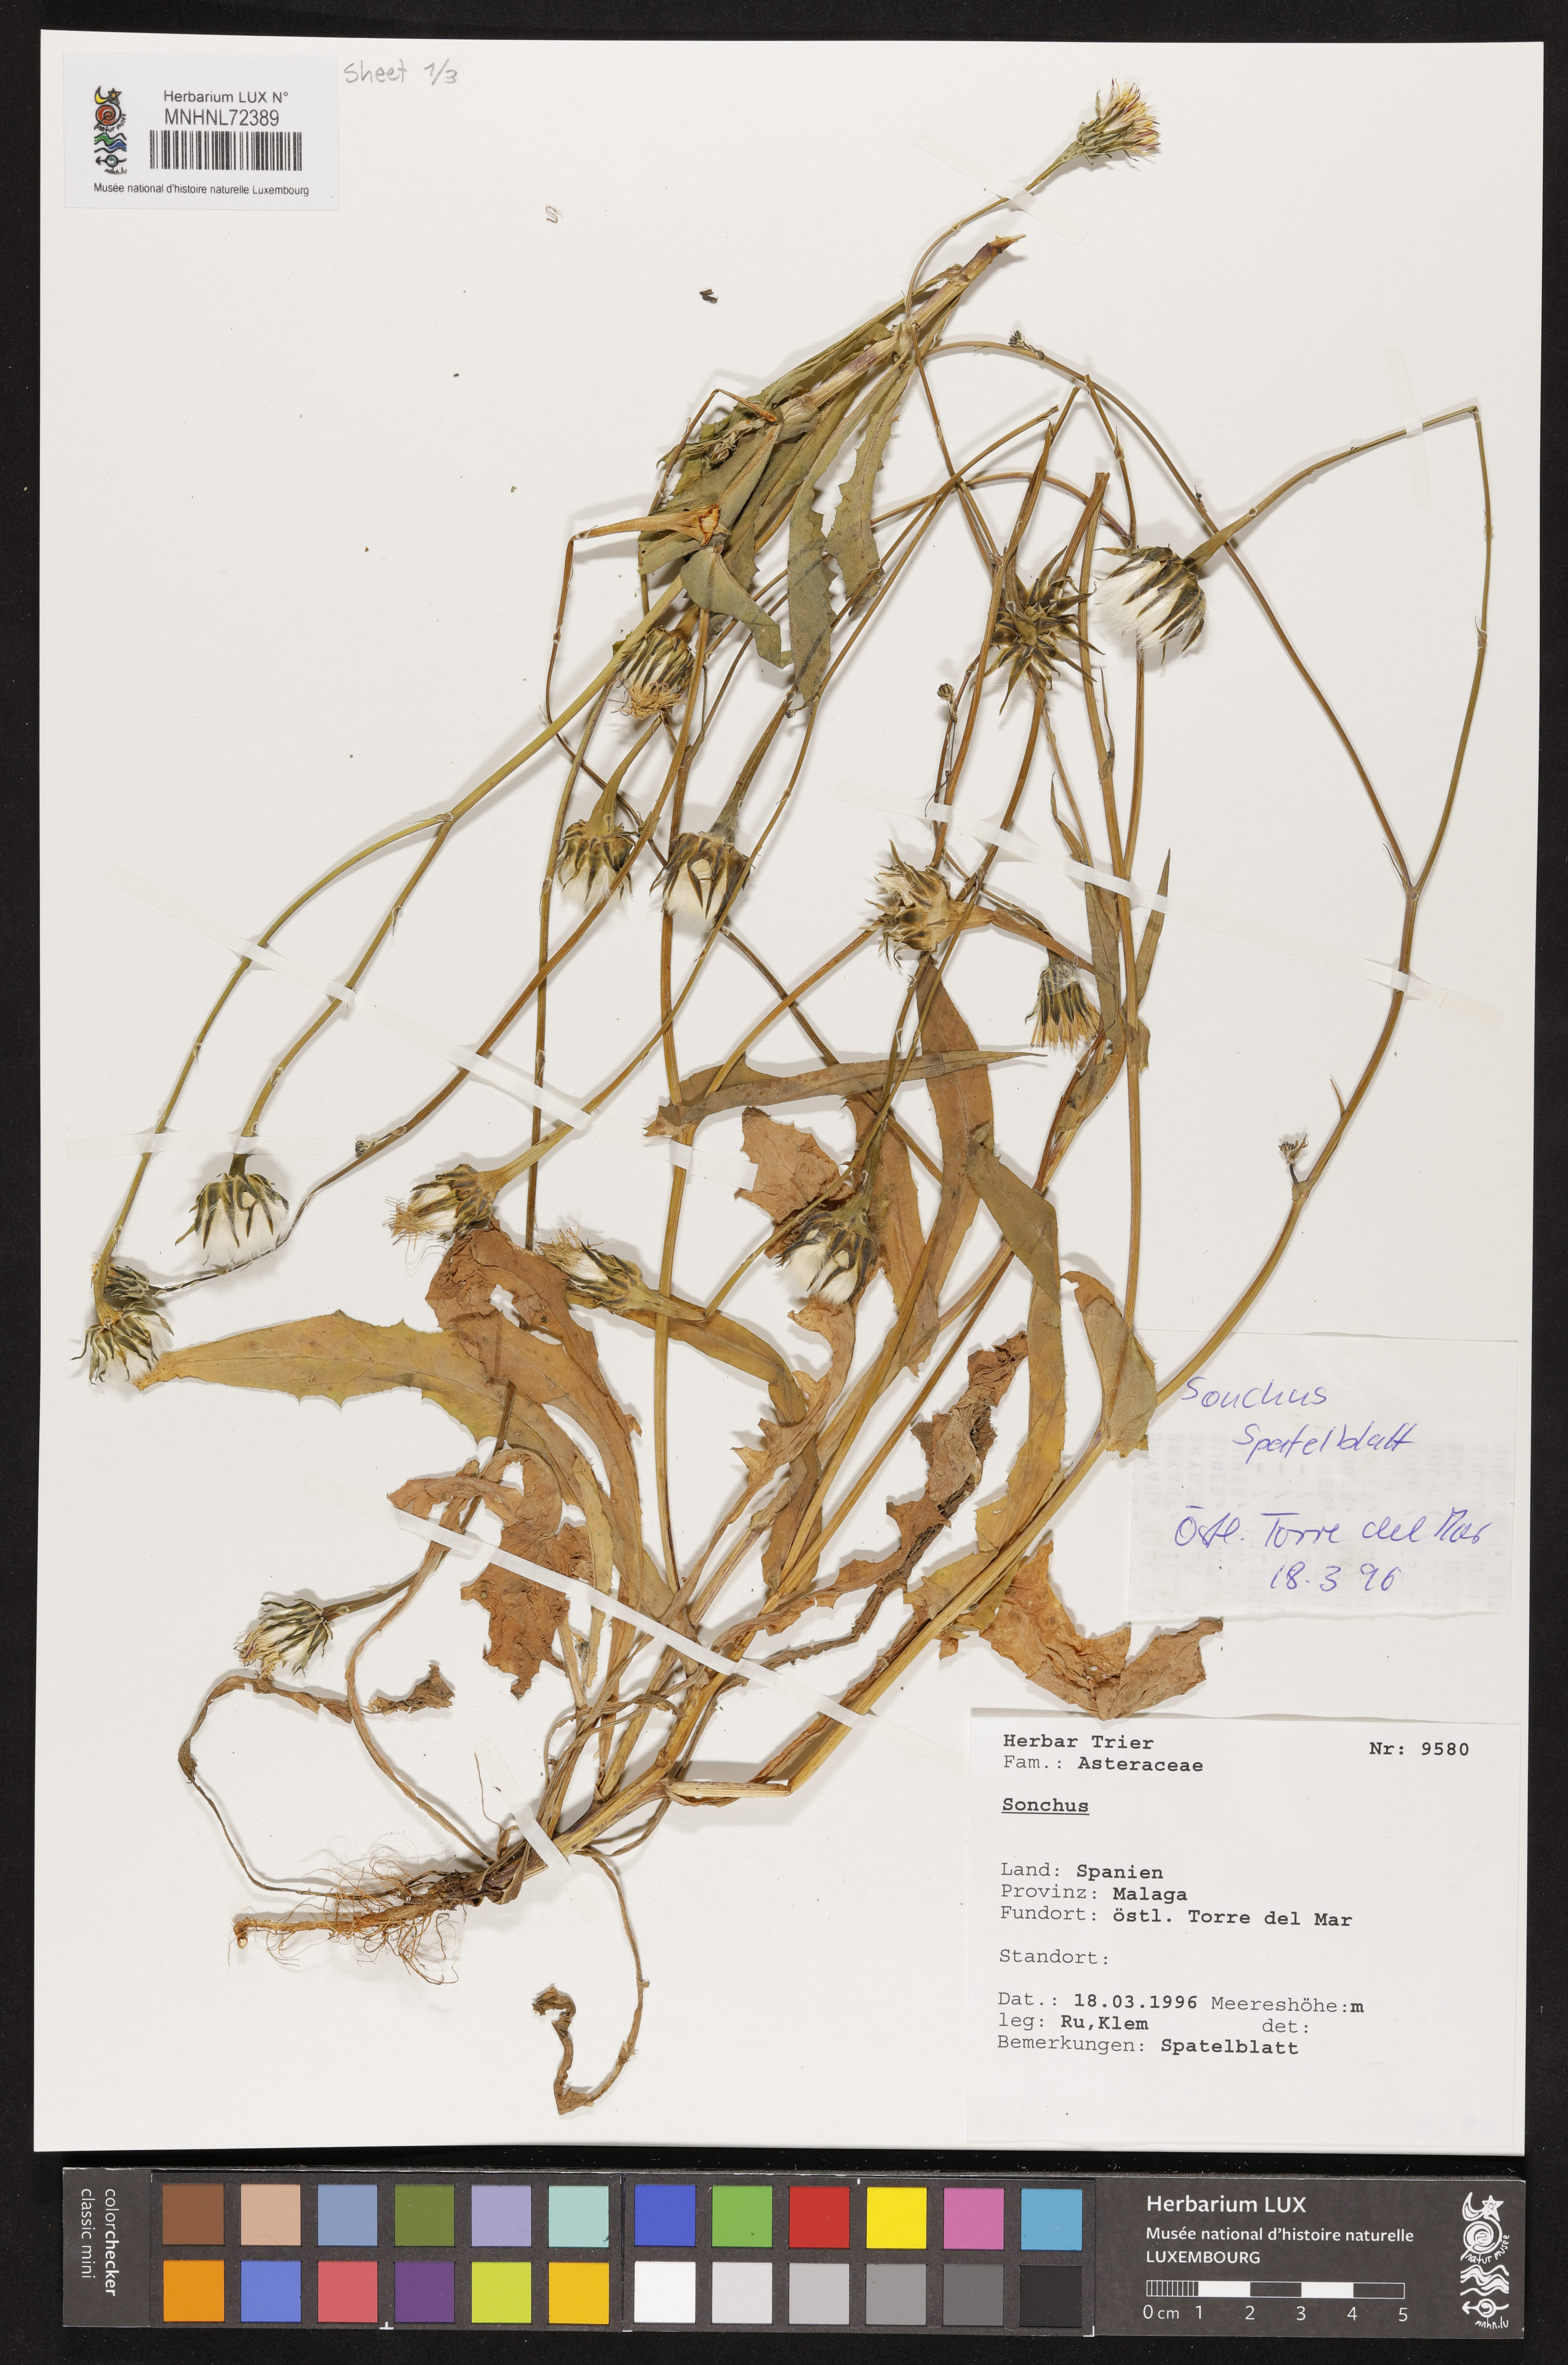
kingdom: Plantae
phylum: Tracheophyta
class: Magnoliopsida
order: Asterales
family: Asteraceae
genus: Sonchus
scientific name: Sonchus
